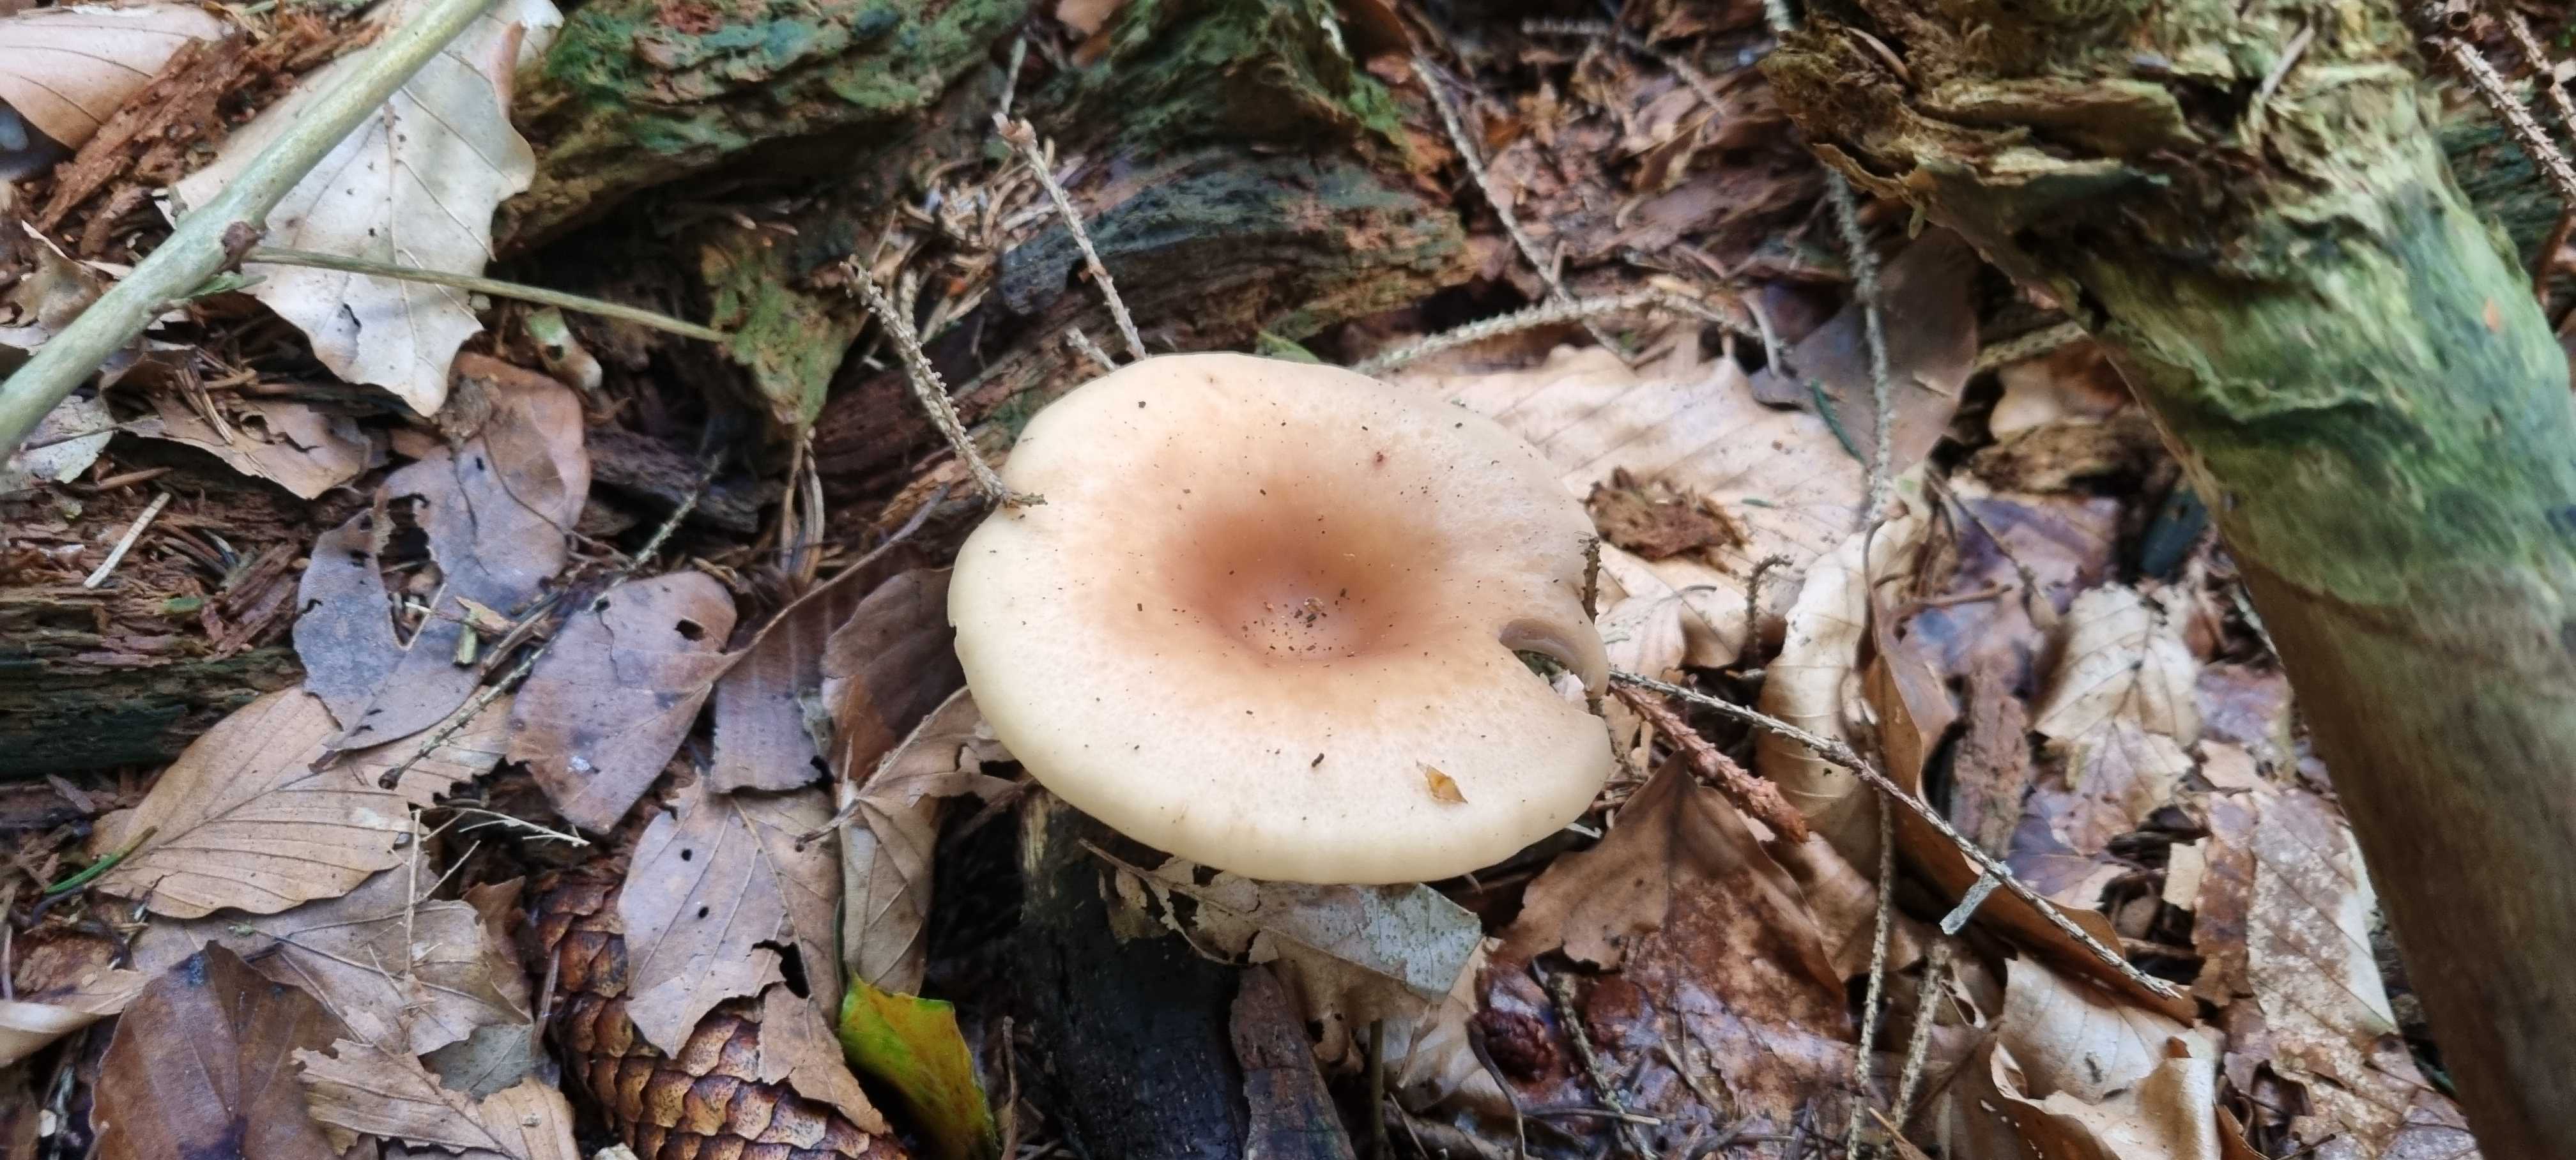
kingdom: Fungi
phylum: Basidiomycota
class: Agaricomycetes
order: Agaricales
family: Tricholomataceae
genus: Paralepista
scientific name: Paralepista flaccida
